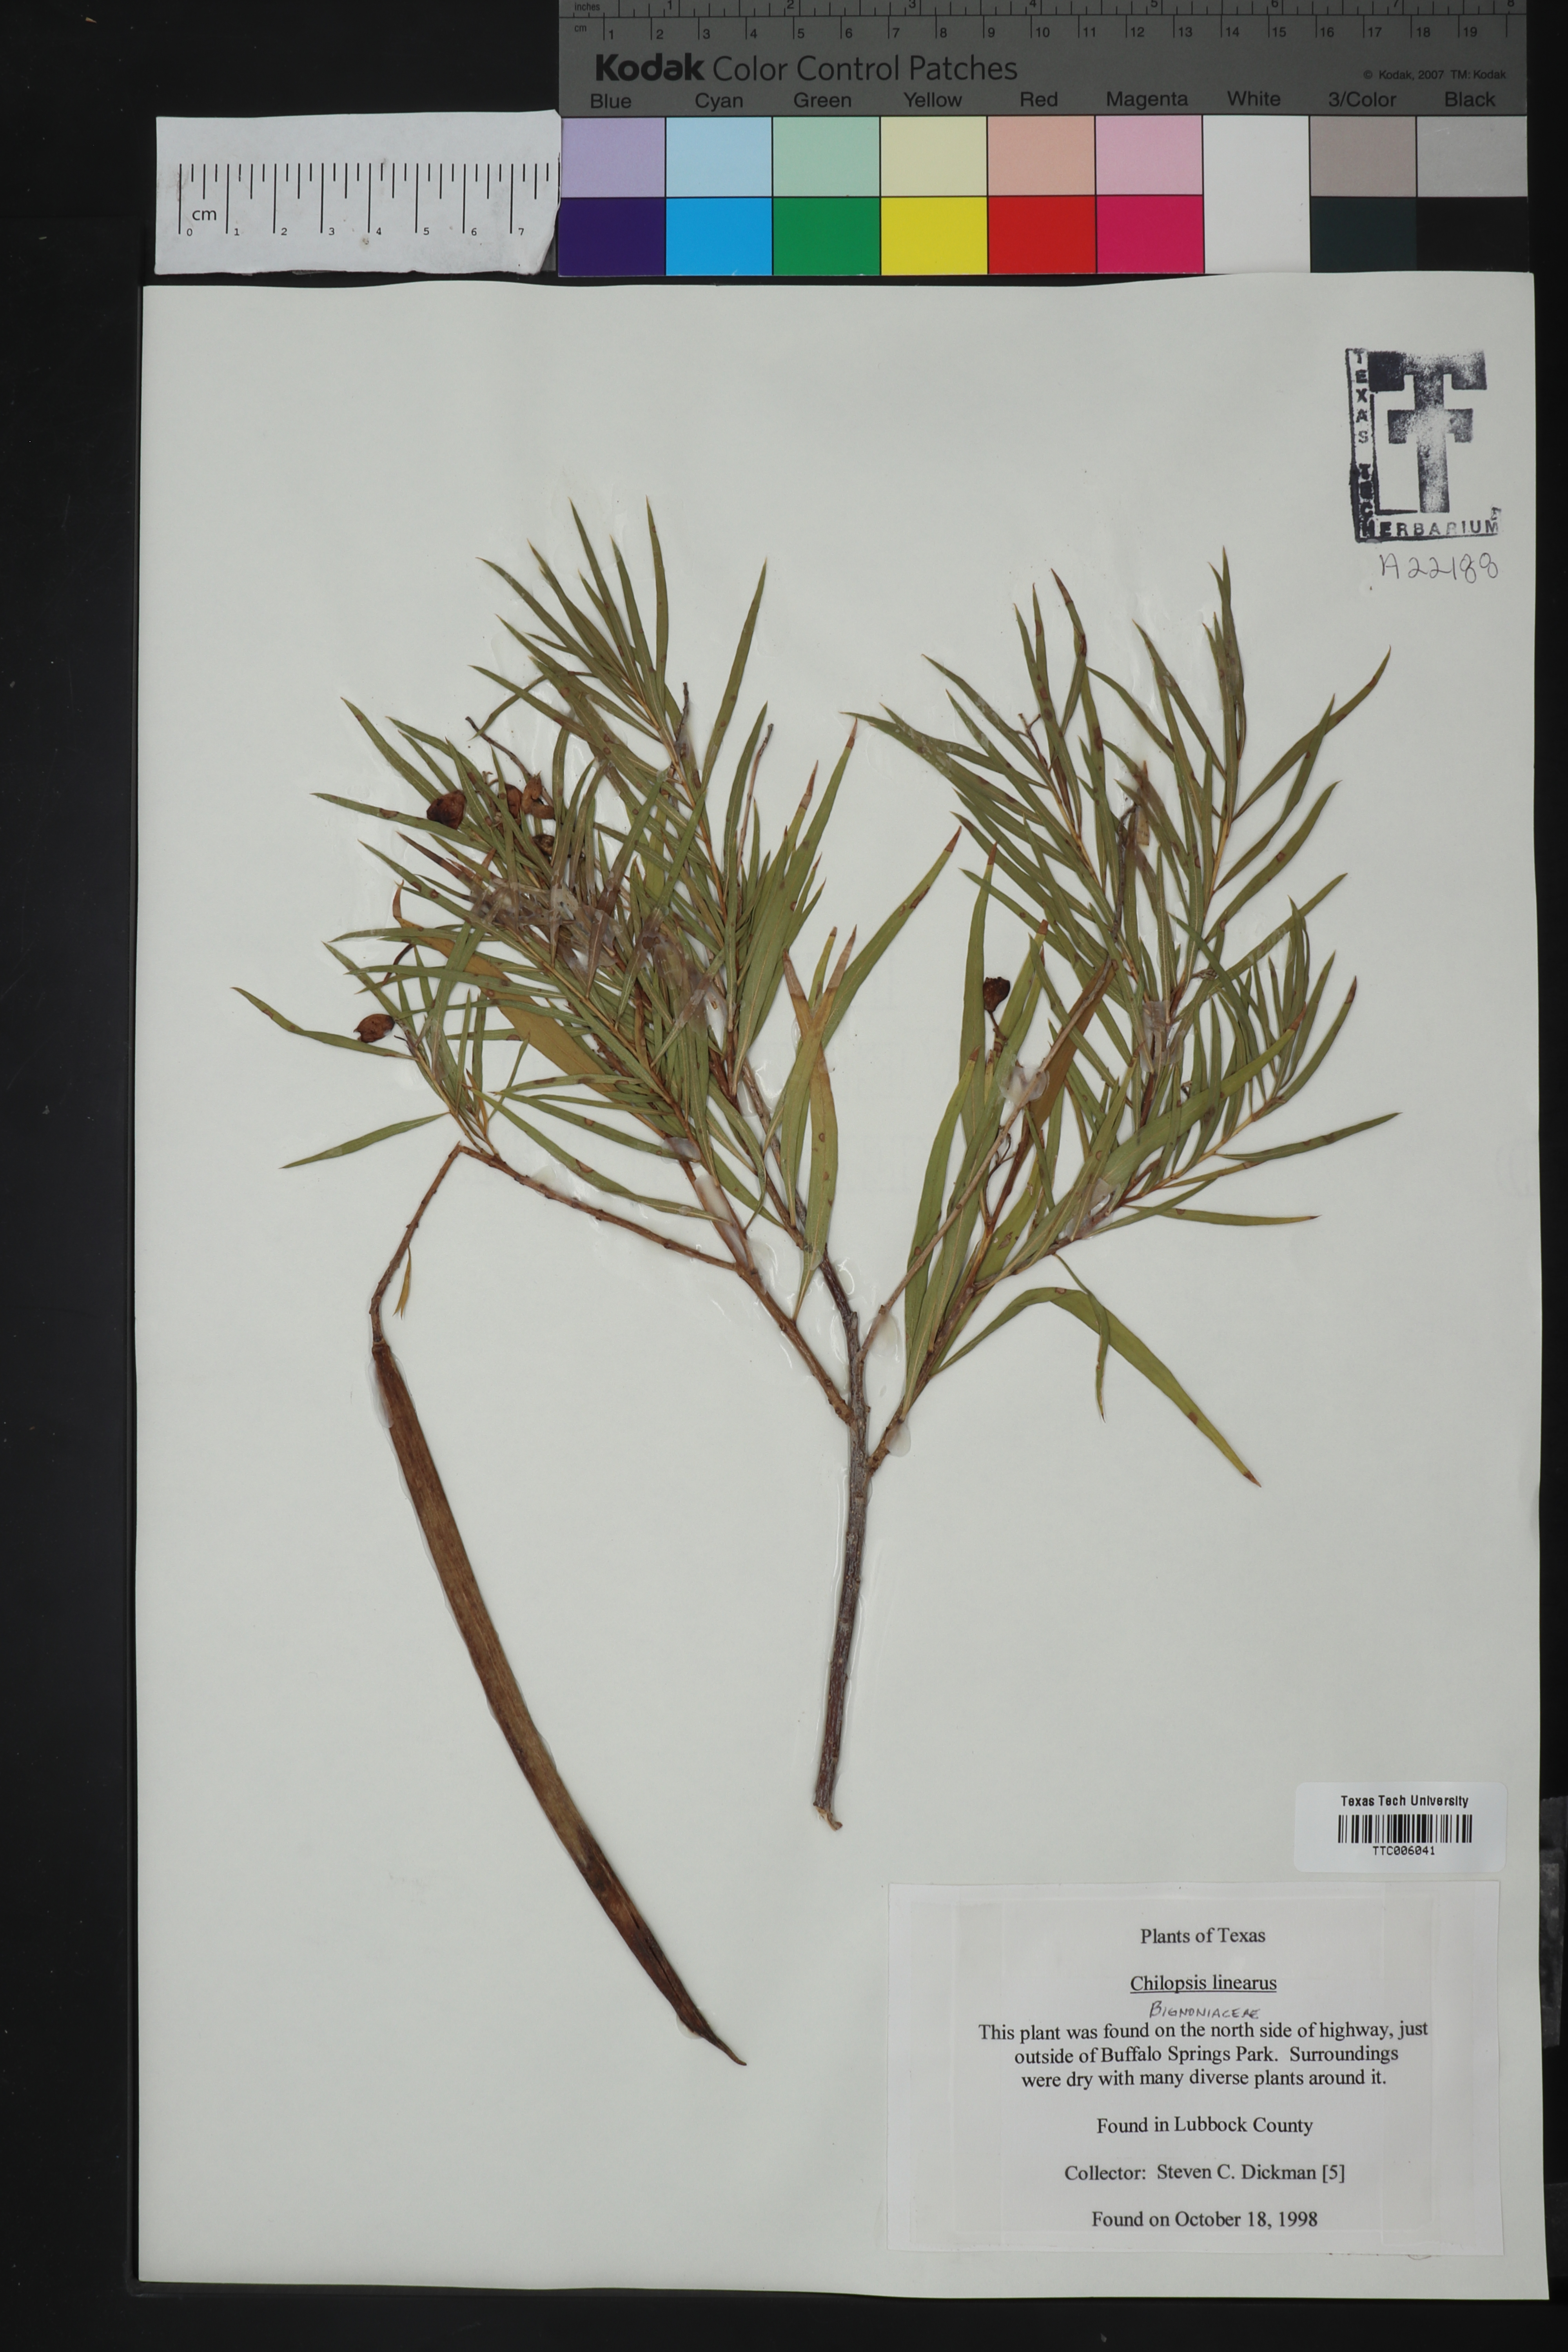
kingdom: Plantae
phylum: Tracheophyta
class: Magnoliopsida
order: Lamiales
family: Bignoniaceae
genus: Chilopsis
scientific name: Chilopsis linearis
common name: Desert-willow
